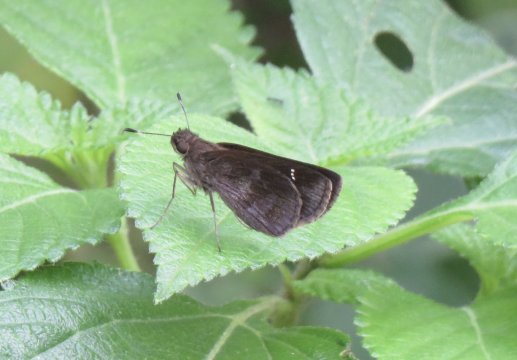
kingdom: Animalia
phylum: Arthropoda
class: Insecta
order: Lepidoptera
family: Hesperiidae
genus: Lerema
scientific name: Lerema accius
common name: Clouded Skipper
